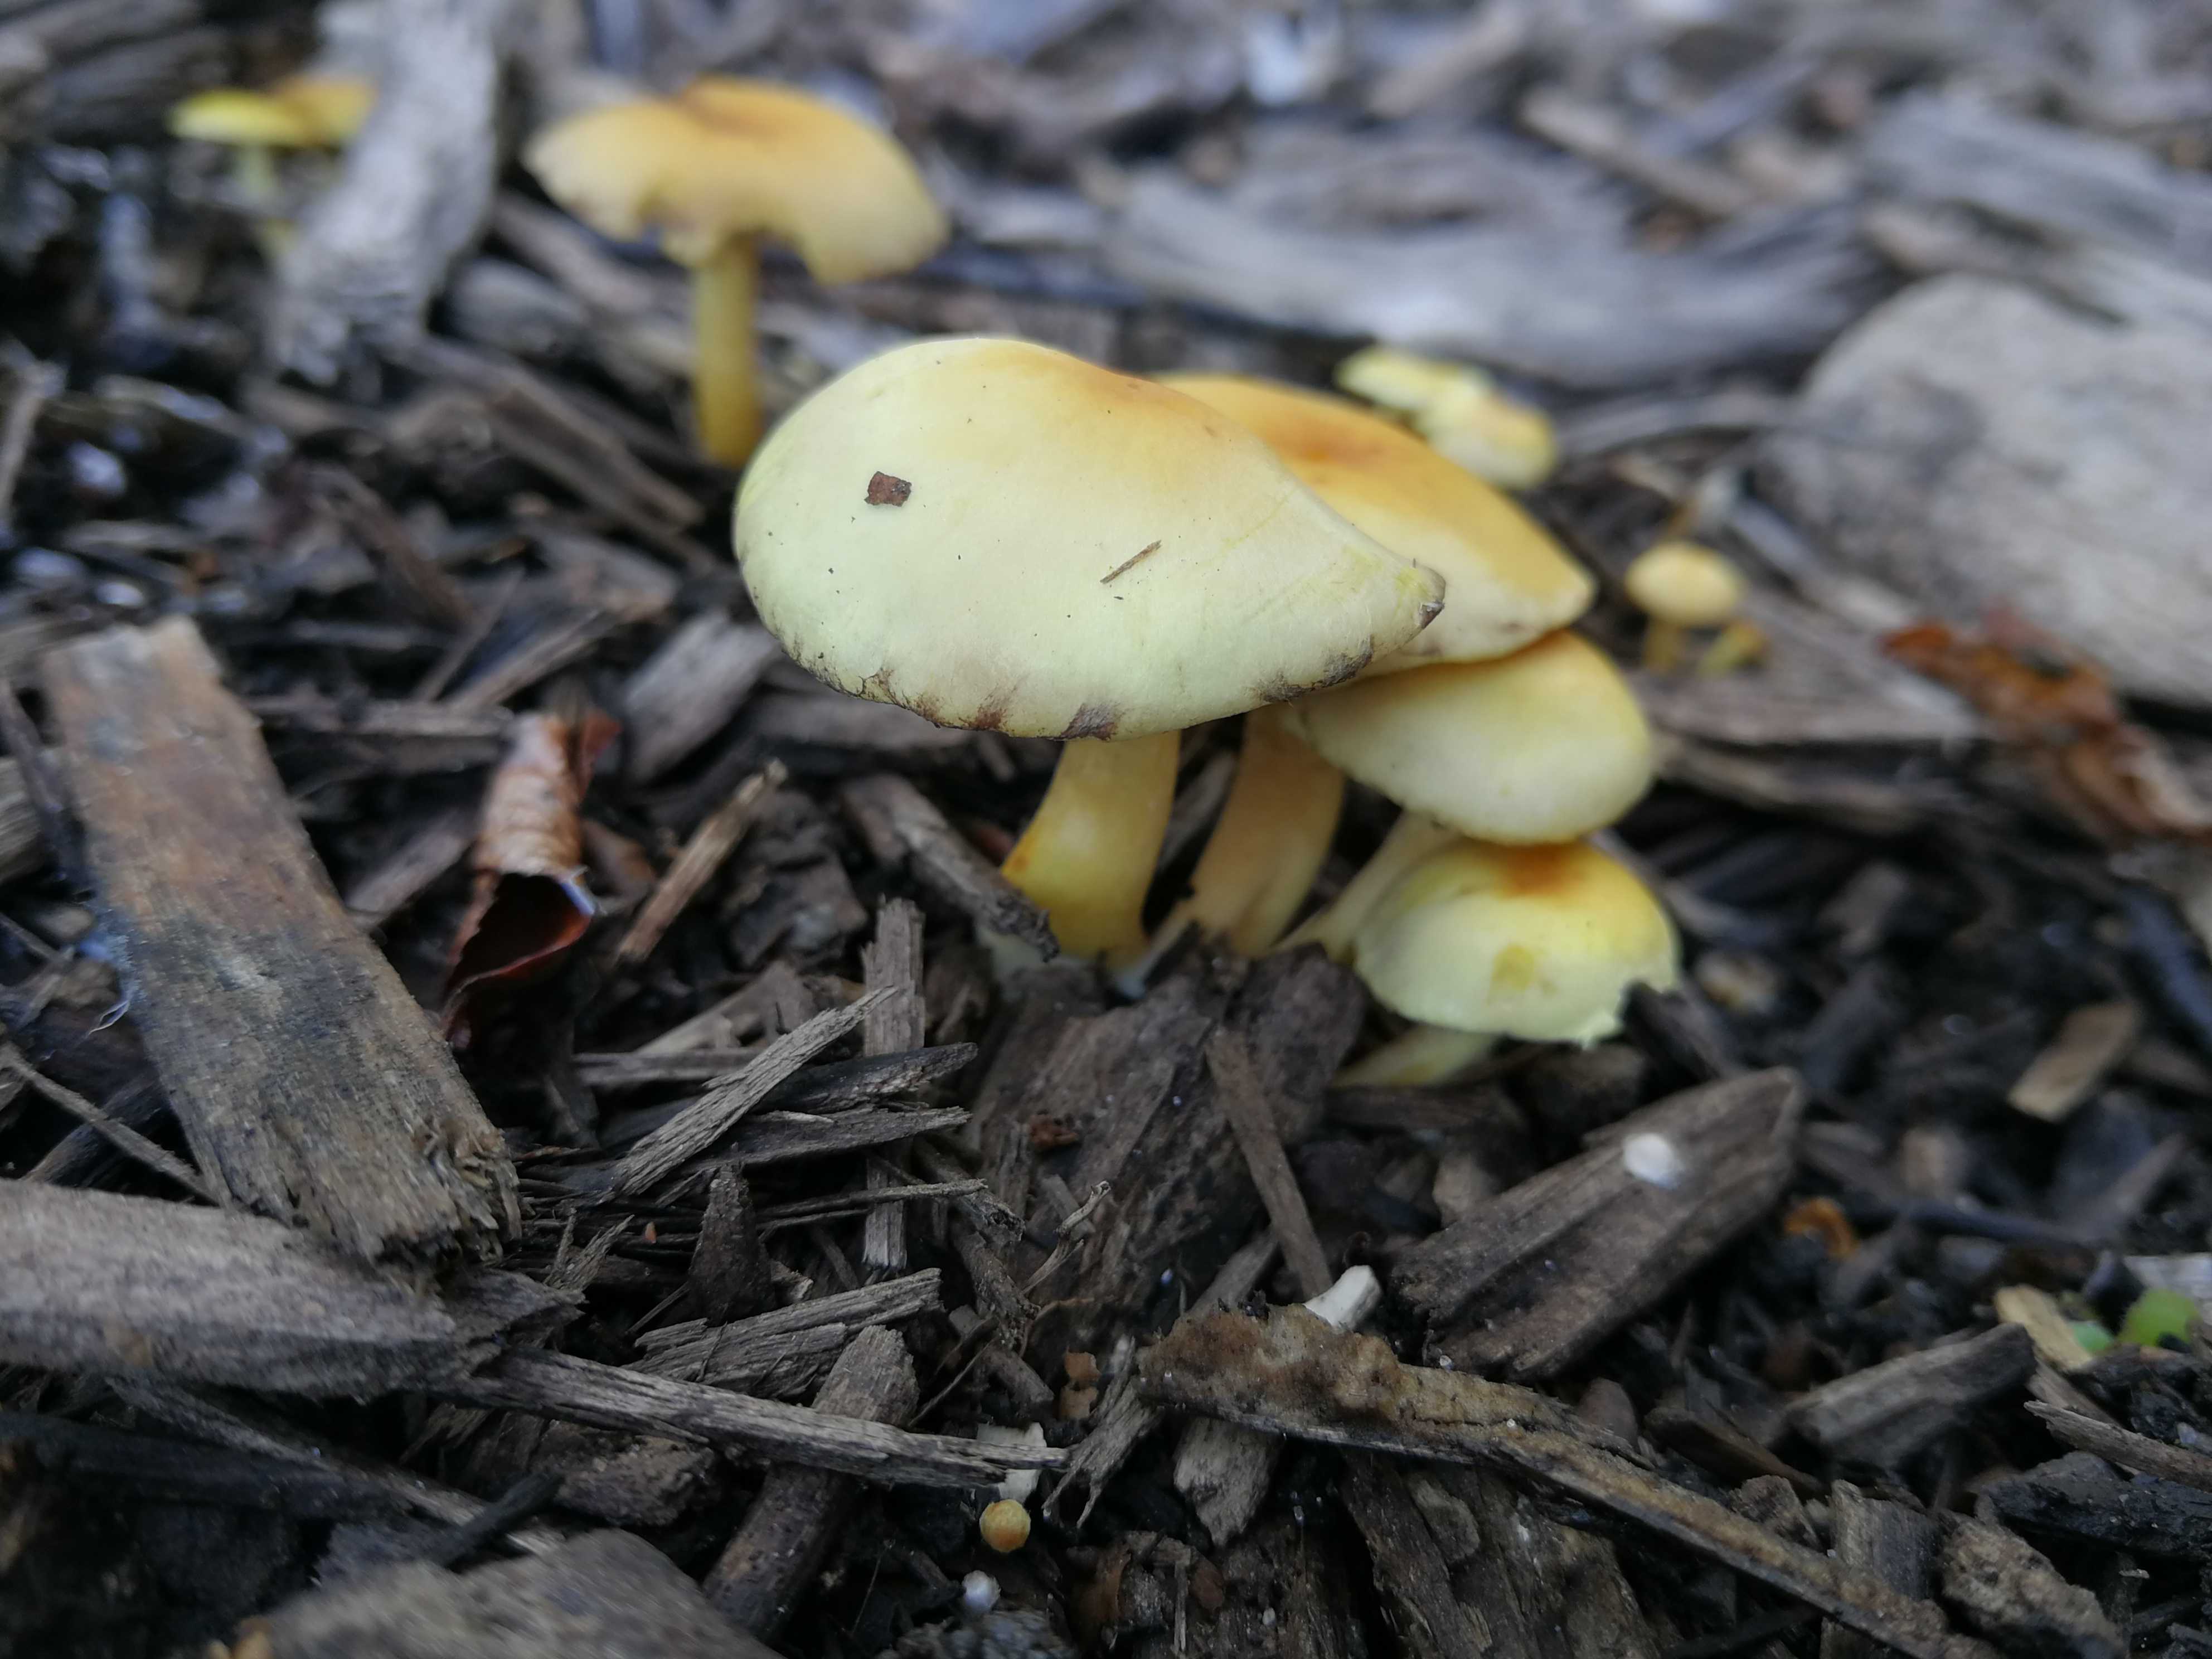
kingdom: Fungi
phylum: Basidiomycota
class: Agaricomycetes
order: Agaricales
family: Strophariaceae
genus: Hypholoma
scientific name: Hypholoma fasciculare
